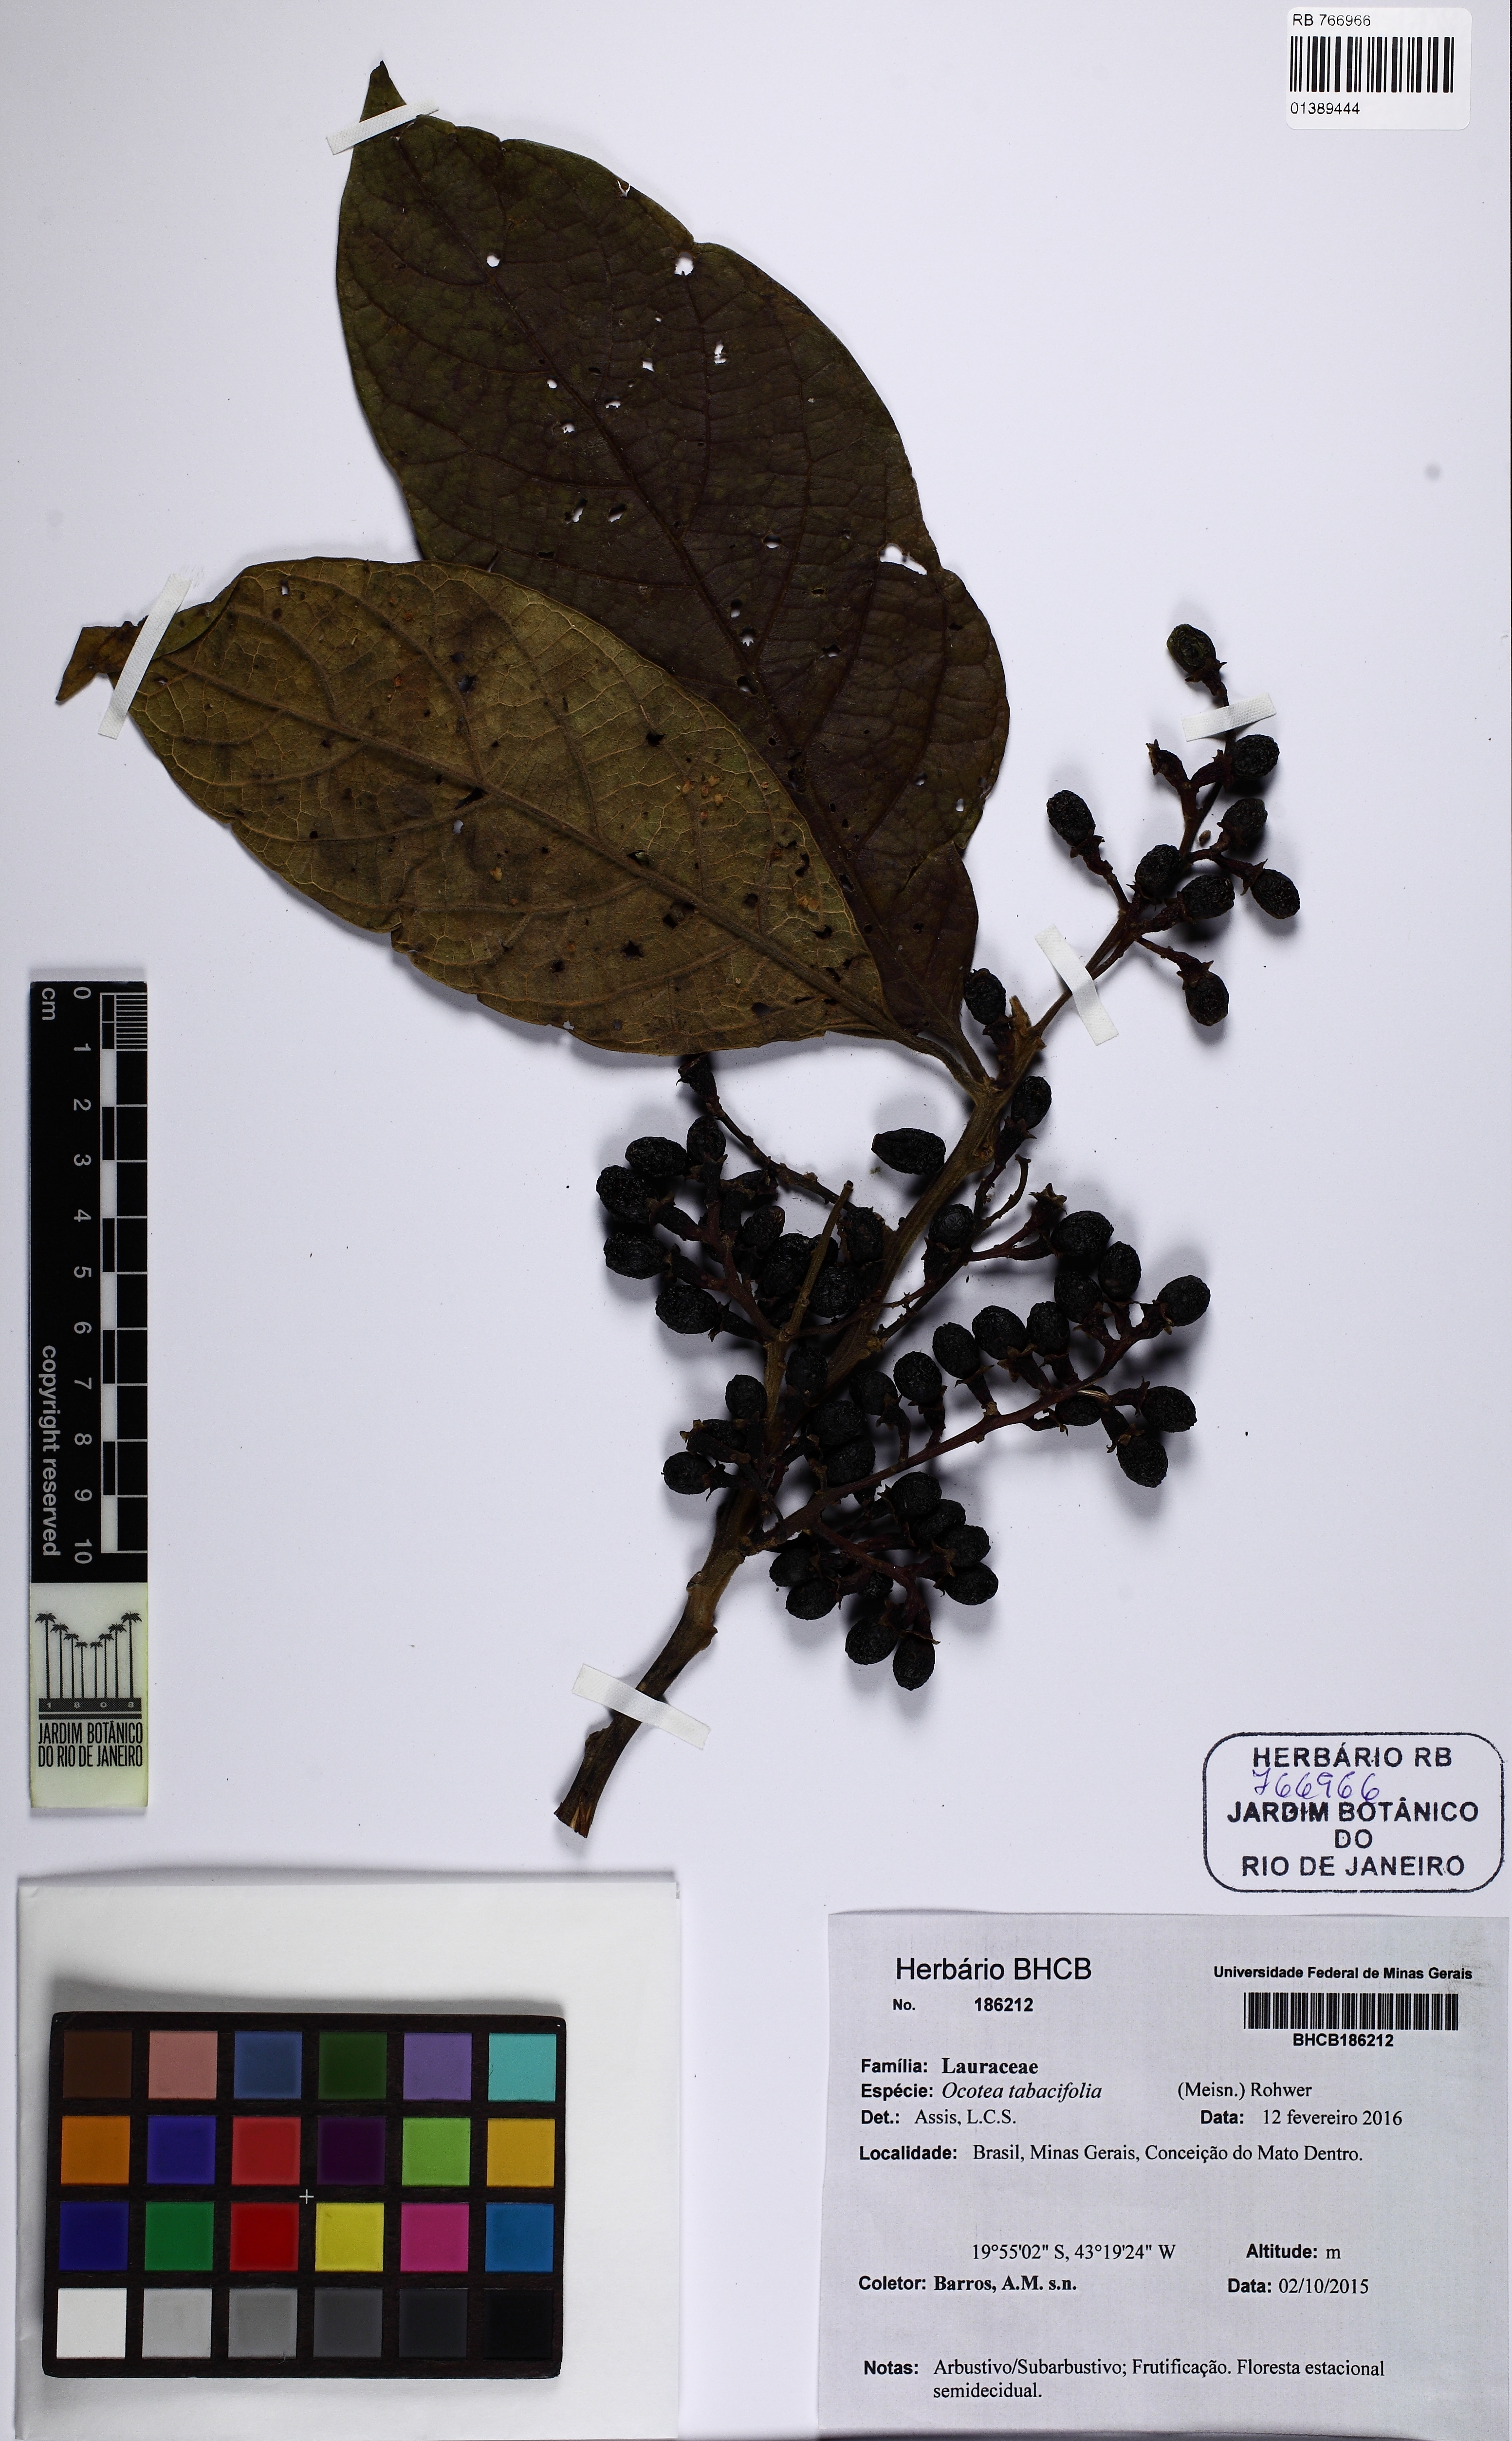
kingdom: Plantae
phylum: Tracheophyta
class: Magnoliopsida
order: Laurales
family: Lauraceae
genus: Ocotea
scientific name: Ocotea tabacifolia
